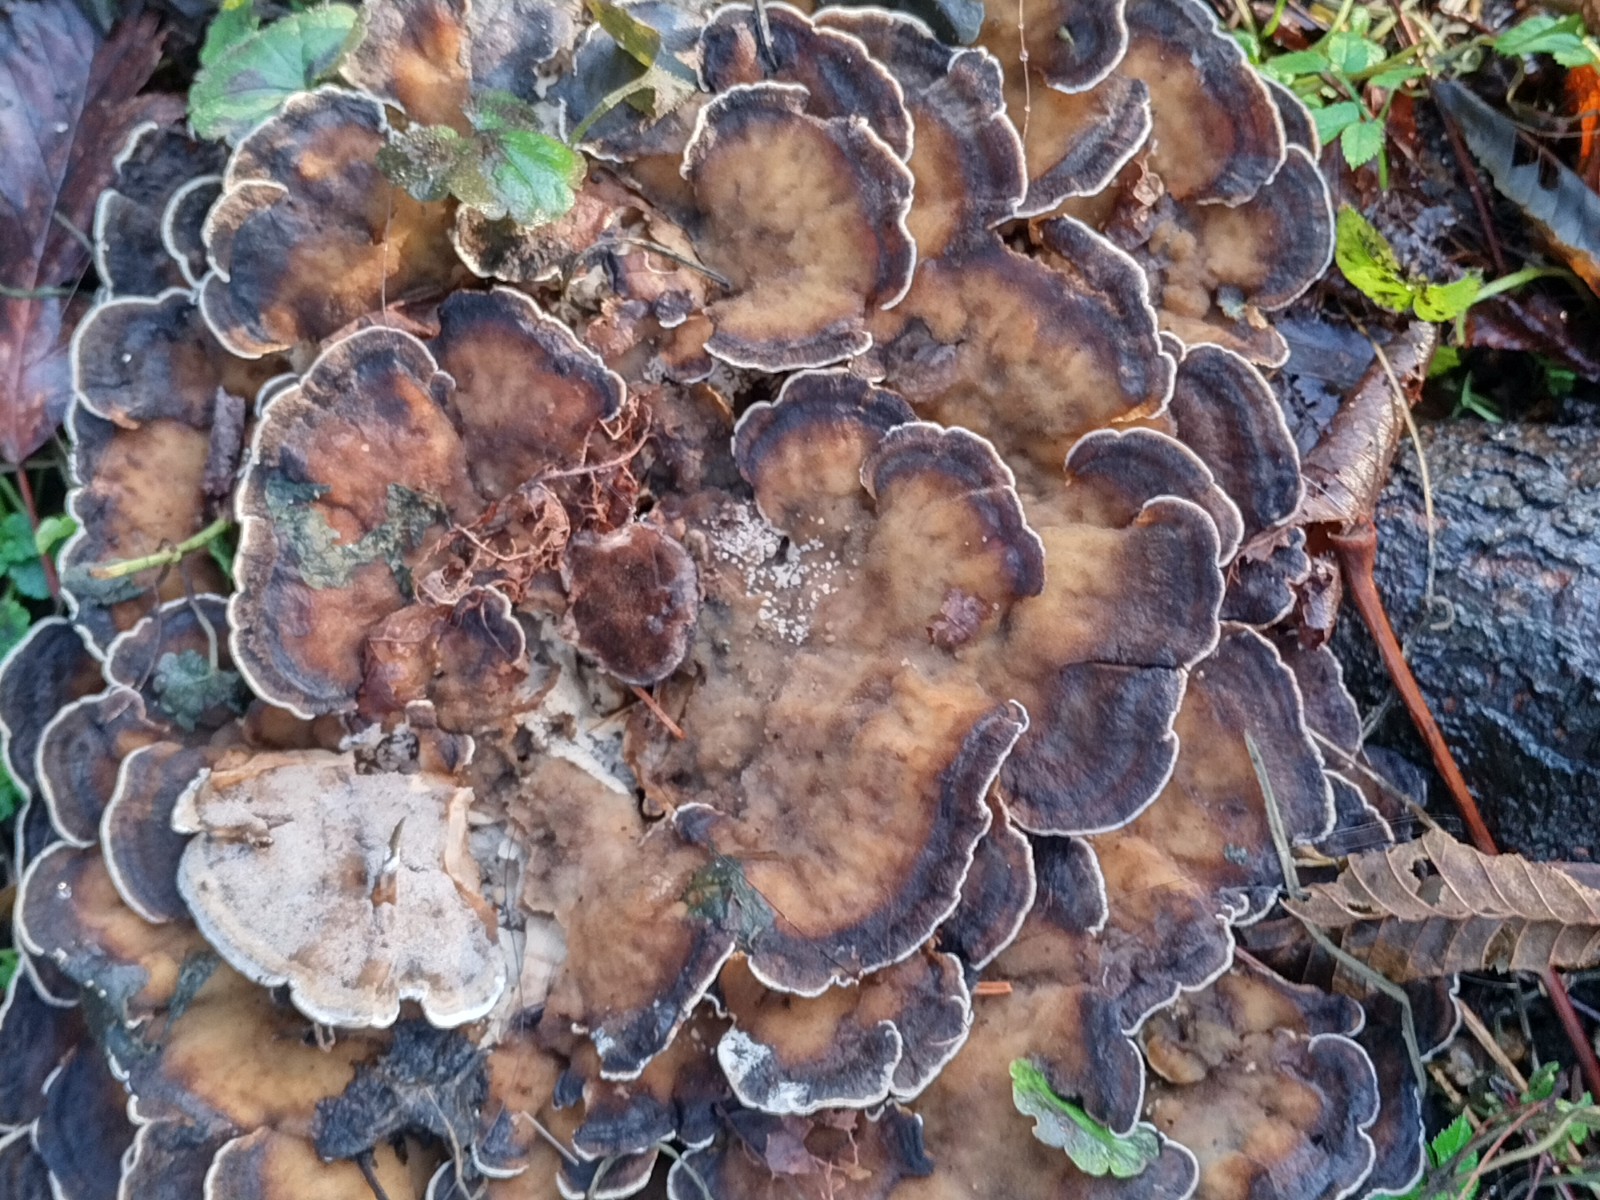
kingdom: Fungi
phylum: Basidiomycota
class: Agaricomycetes
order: Polyporales
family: Phanerochaetaceae
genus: Bjerkandera
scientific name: Bjerkandera adusta
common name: sveden sodporesvamp
